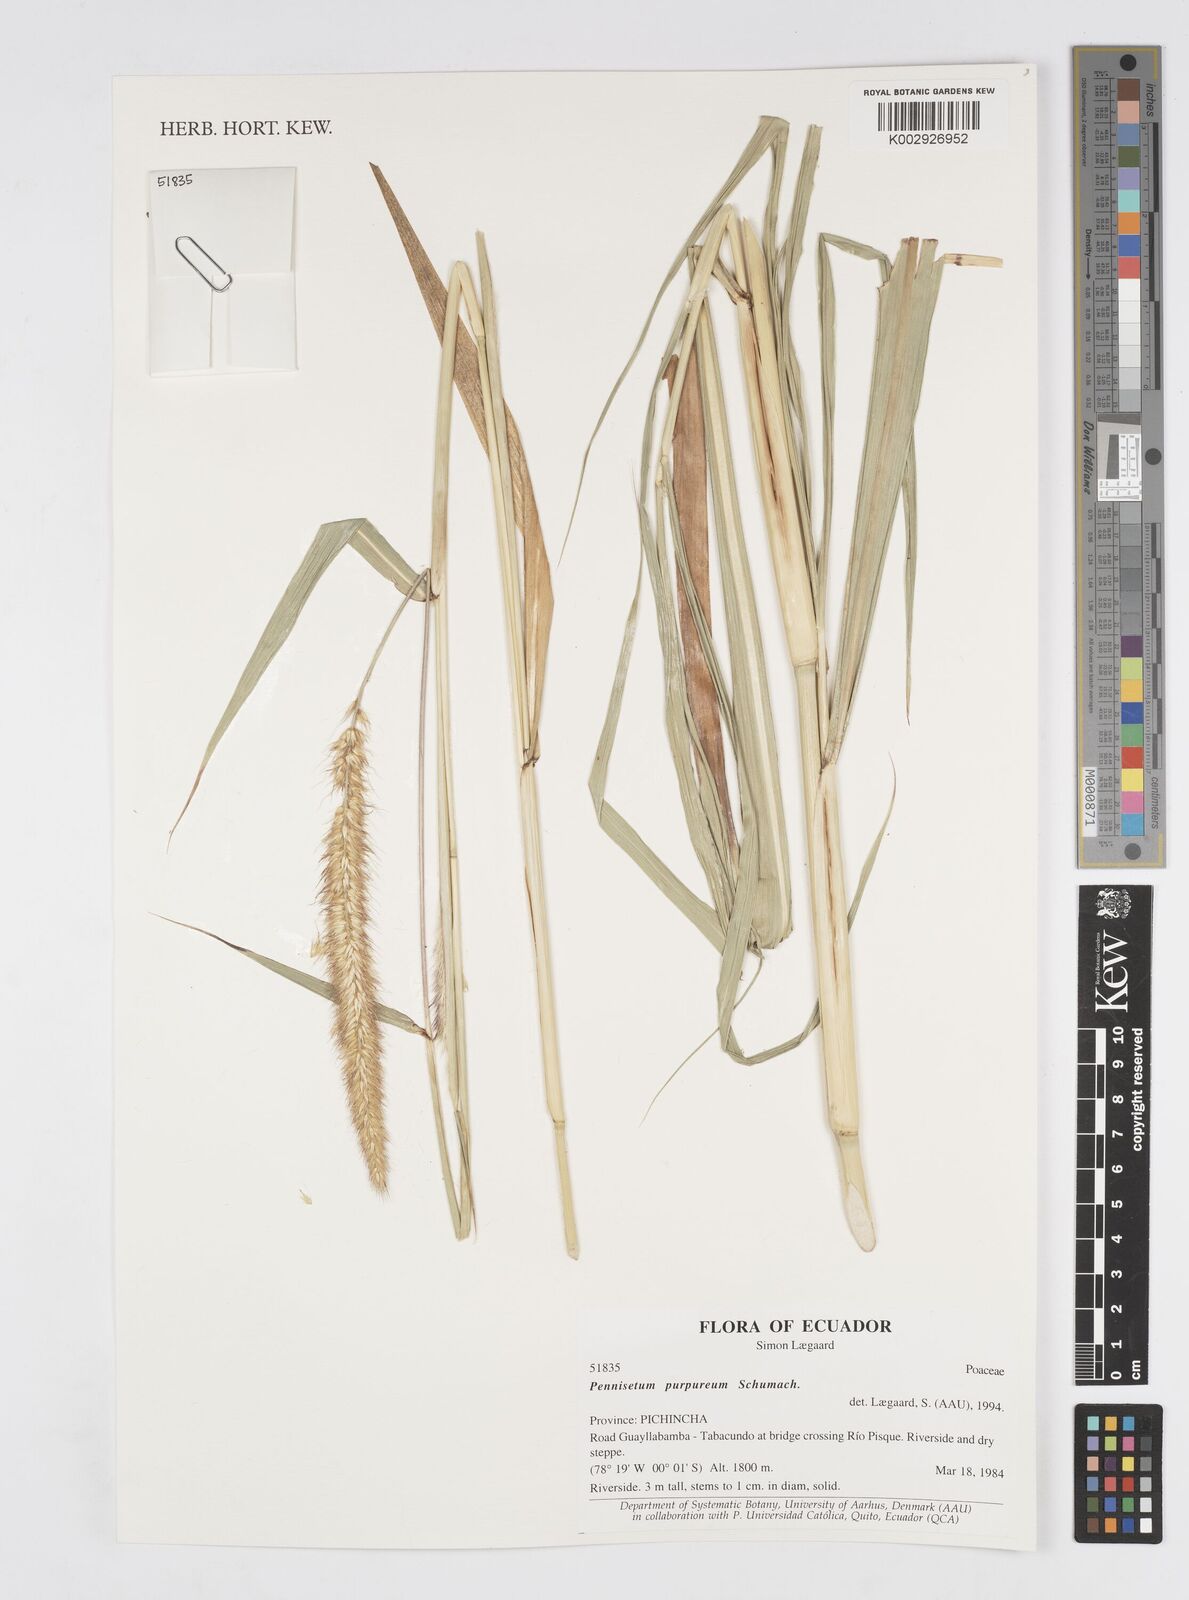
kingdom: Plantae
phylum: Tracheophyta
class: Liliopsida
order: Poales
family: Poaceae
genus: Cenchrus
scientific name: Cenchrus Pennisetum spec
